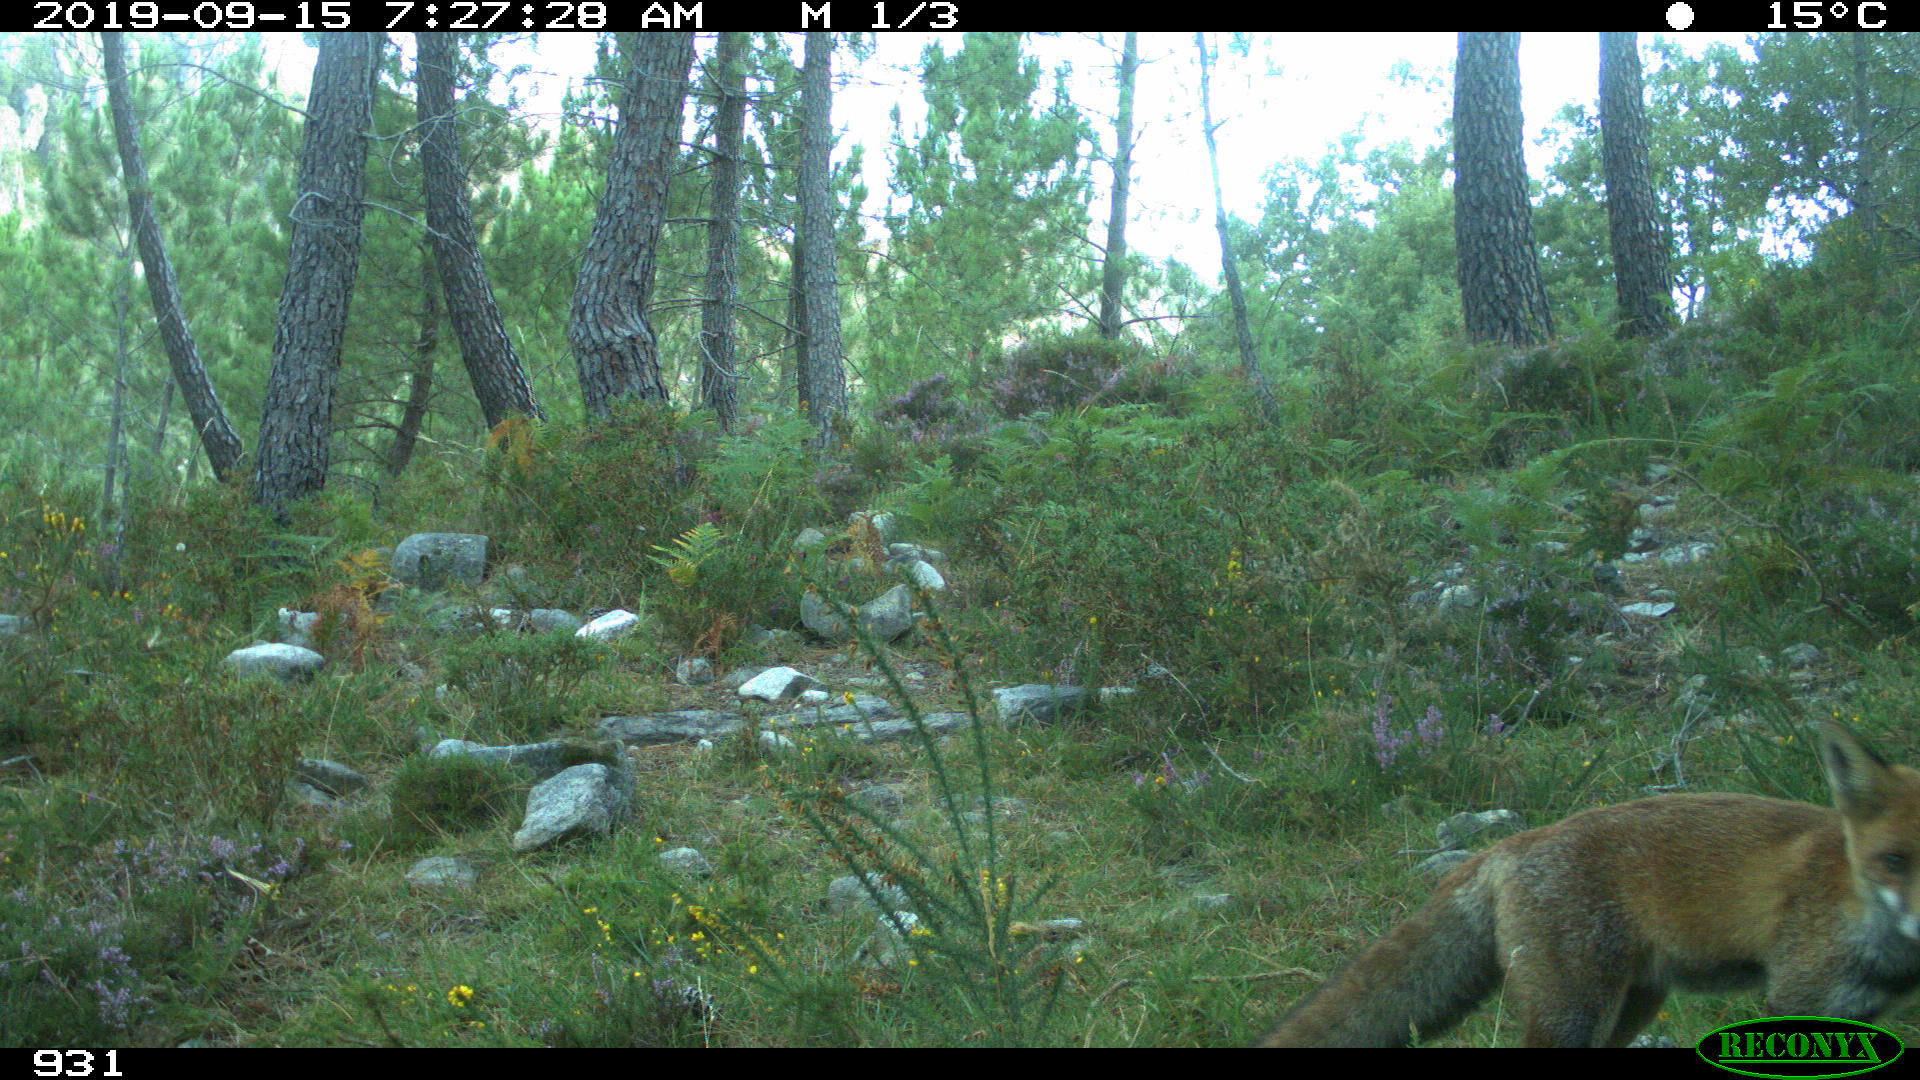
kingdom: Animalia
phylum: Chordata
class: Mammalia
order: Carnivora
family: Canidae
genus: Vulpes
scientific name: Vulpes vulpes
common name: Red fox
